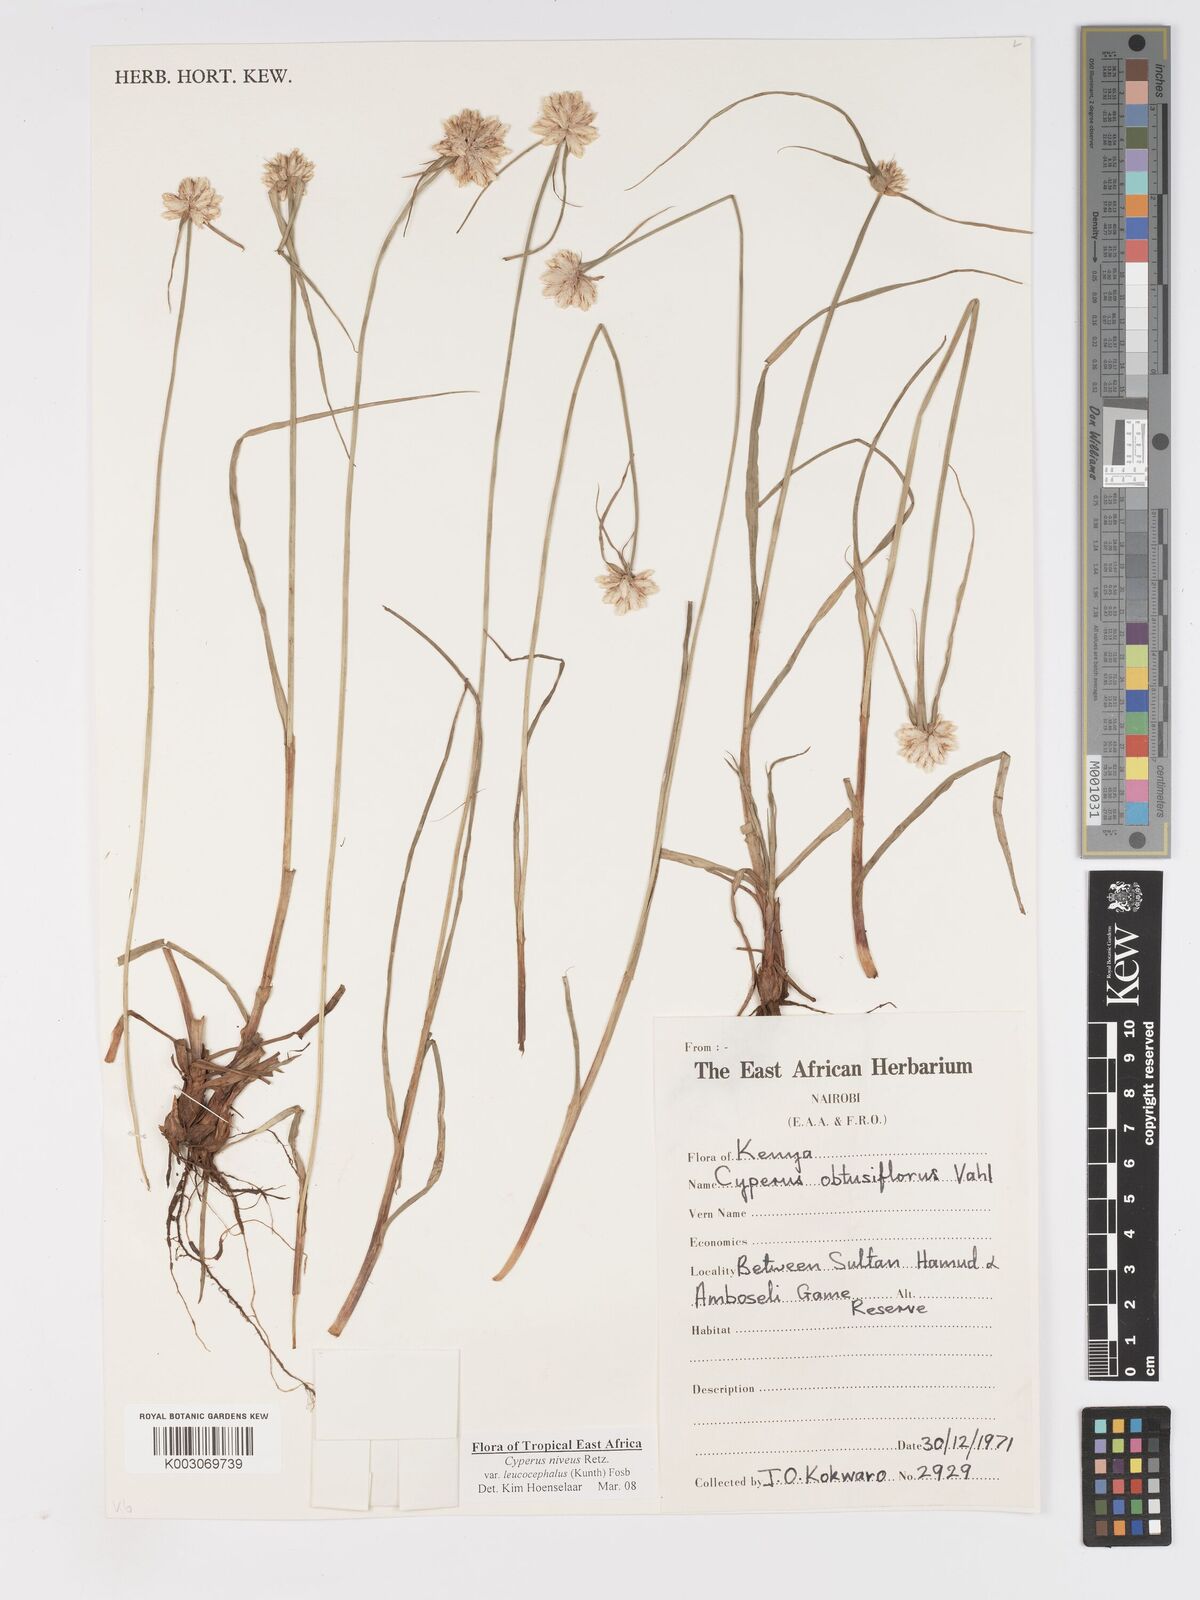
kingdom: Plantae
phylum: Tracheophyta
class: Liliopsida
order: Poales
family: Cyperaceae
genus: Cyperus
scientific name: Cyperus niveus
